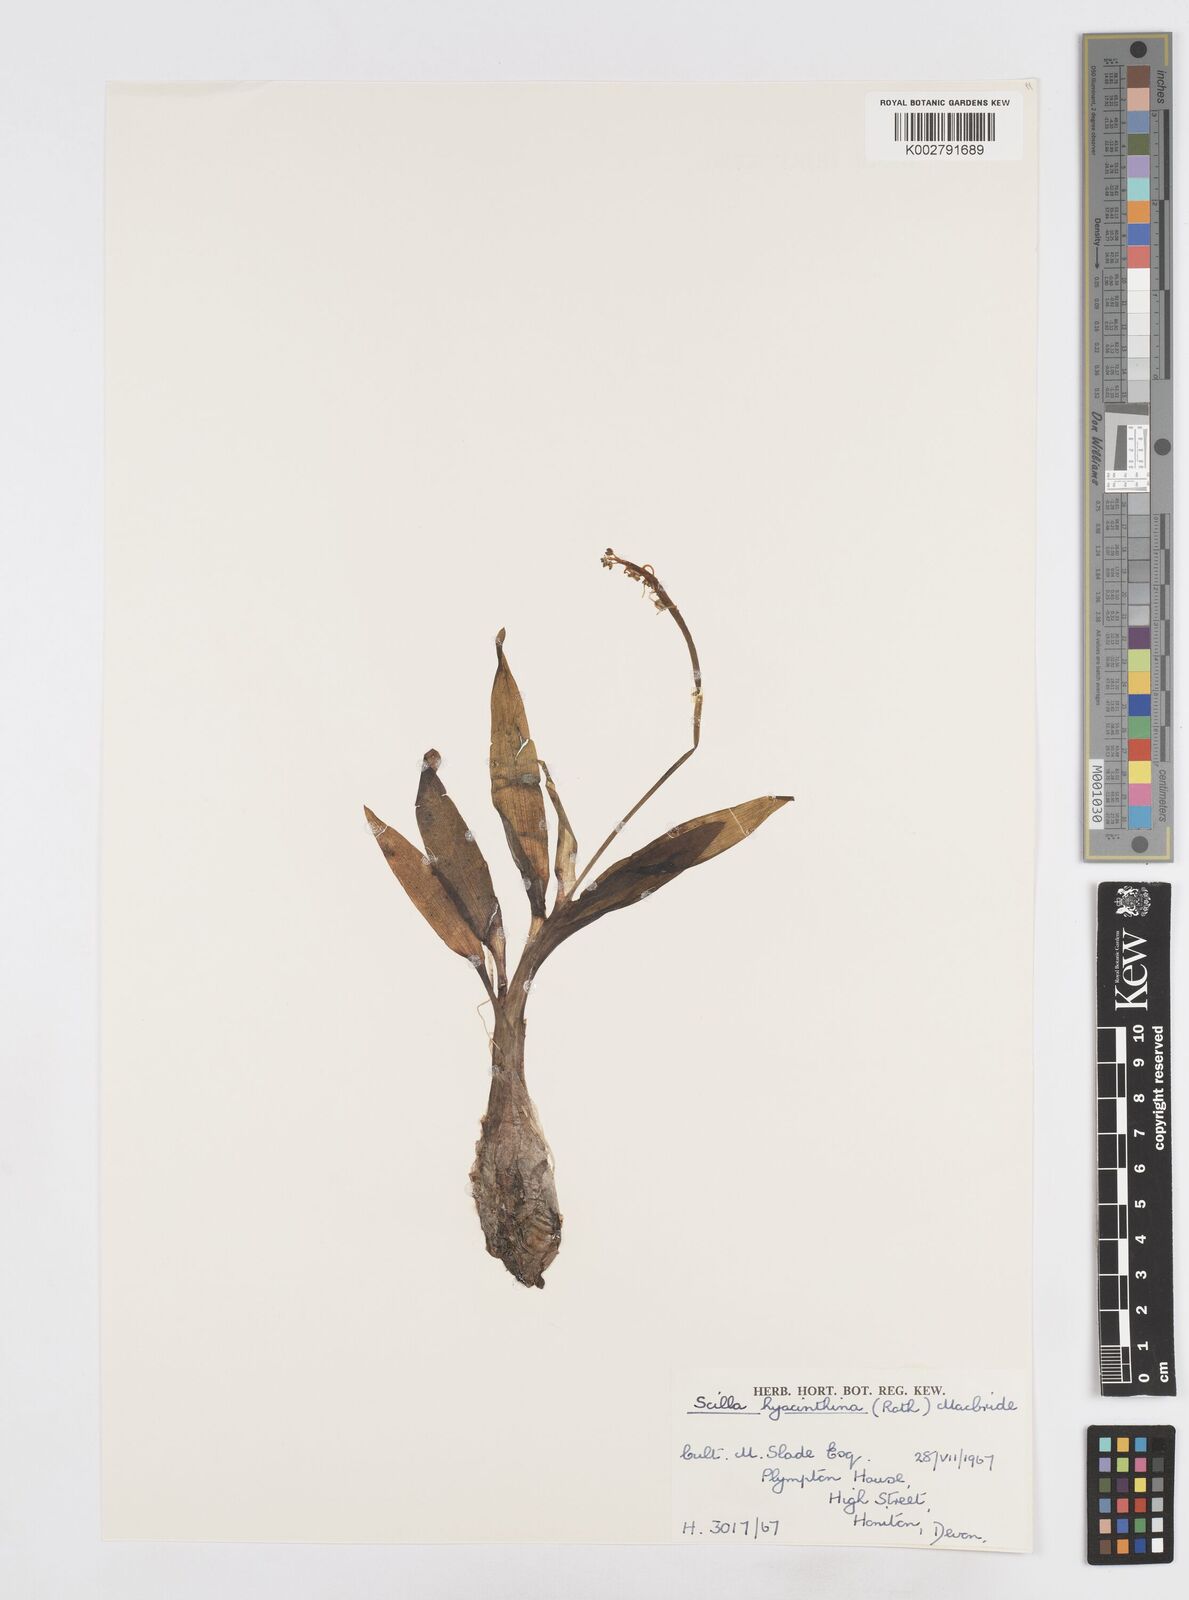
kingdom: Plantae
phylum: Tracheophyta
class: Liliopsida
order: Asparagales
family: Asparagaceae
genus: Ledebouria
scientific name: Ledebouria revoluta
